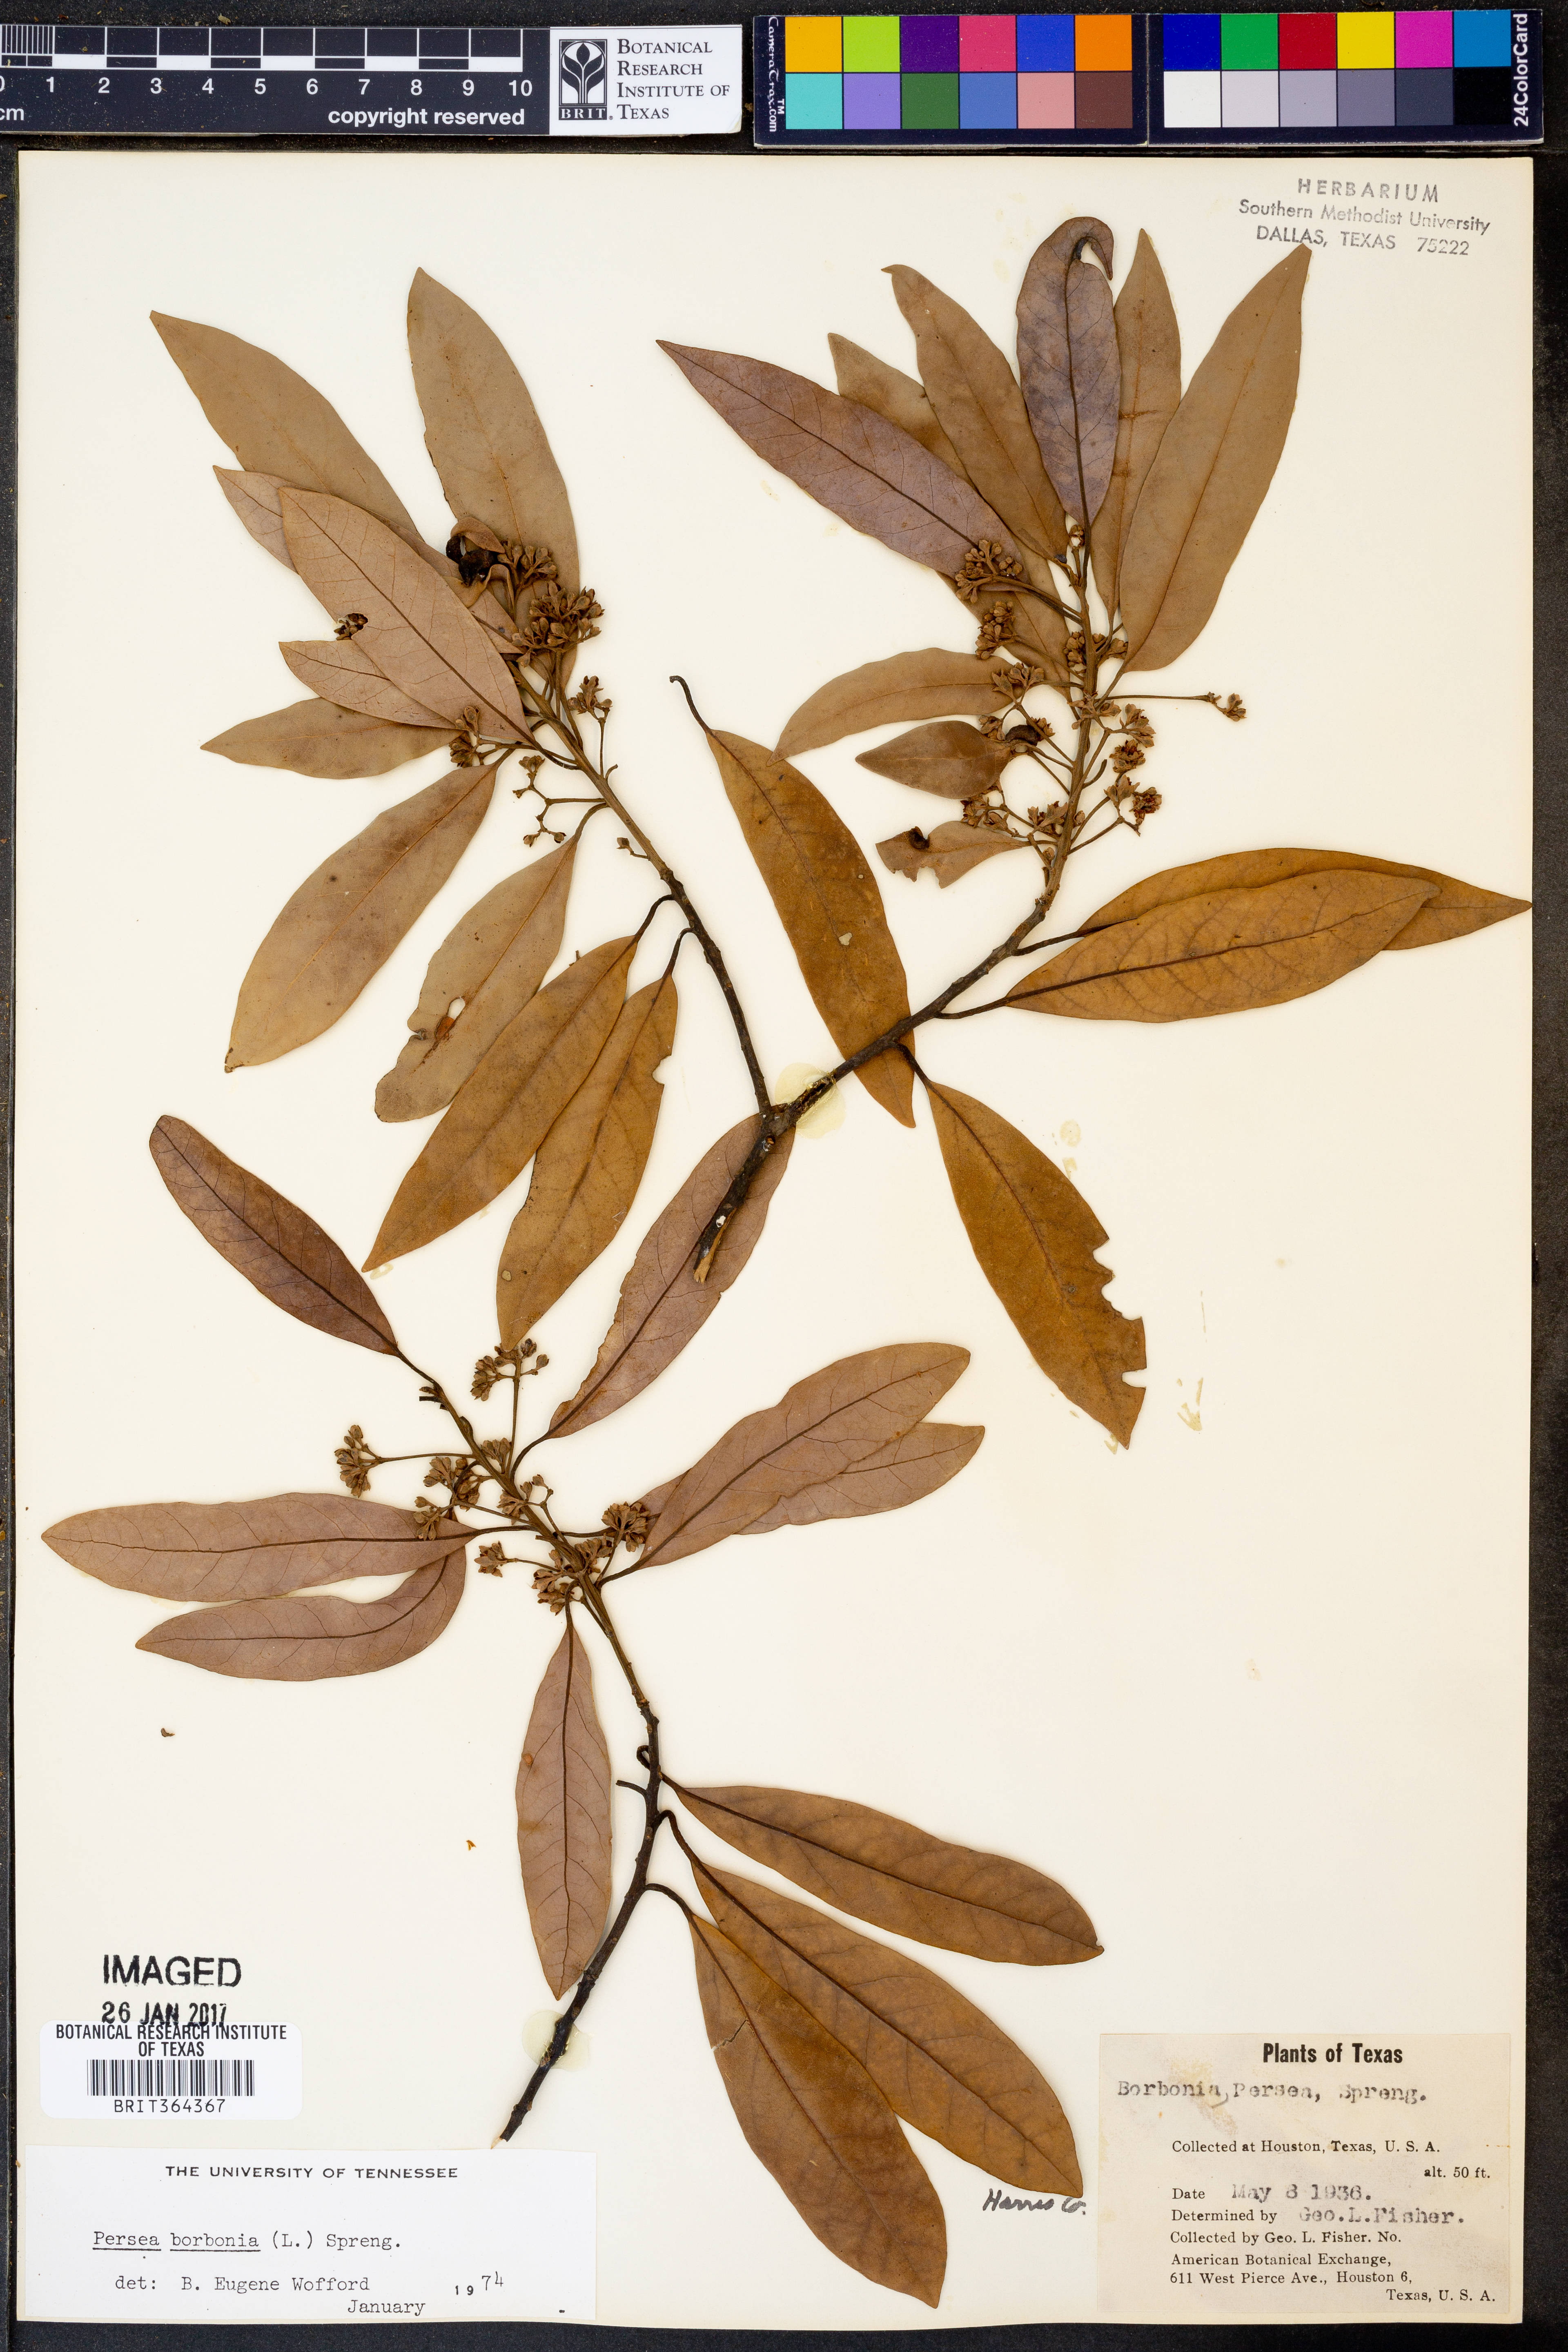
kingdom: Plantae
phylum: Tracheophyta
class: Magnoliopsida
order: Laurales
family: Lauraceae
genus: Persea
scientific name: Persea borbonia
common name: Redbay
